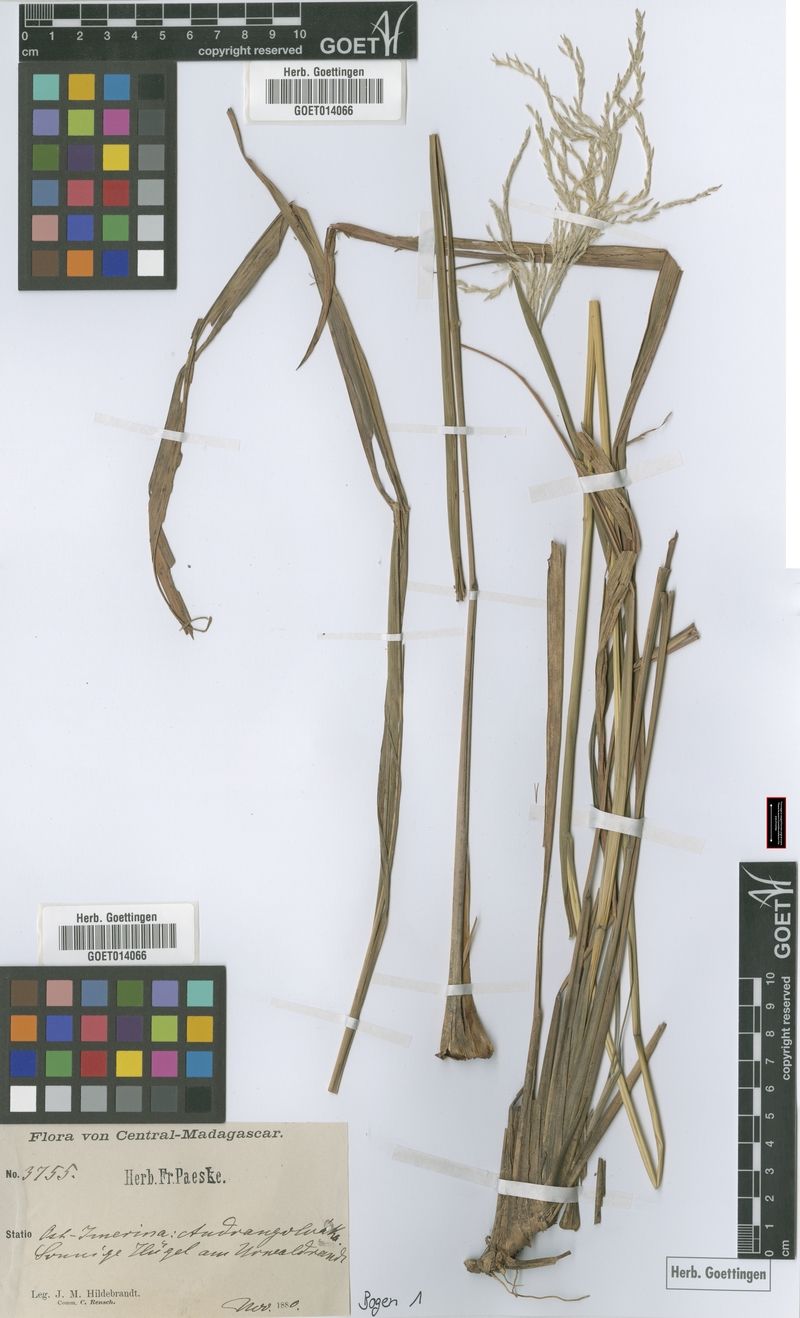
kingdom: Plantae
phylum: Tracheophyta
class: Liliopsida
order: Poales
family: Poaceae
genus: Lasiorhachis
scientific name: Lasiorhachis hildebrandtii
